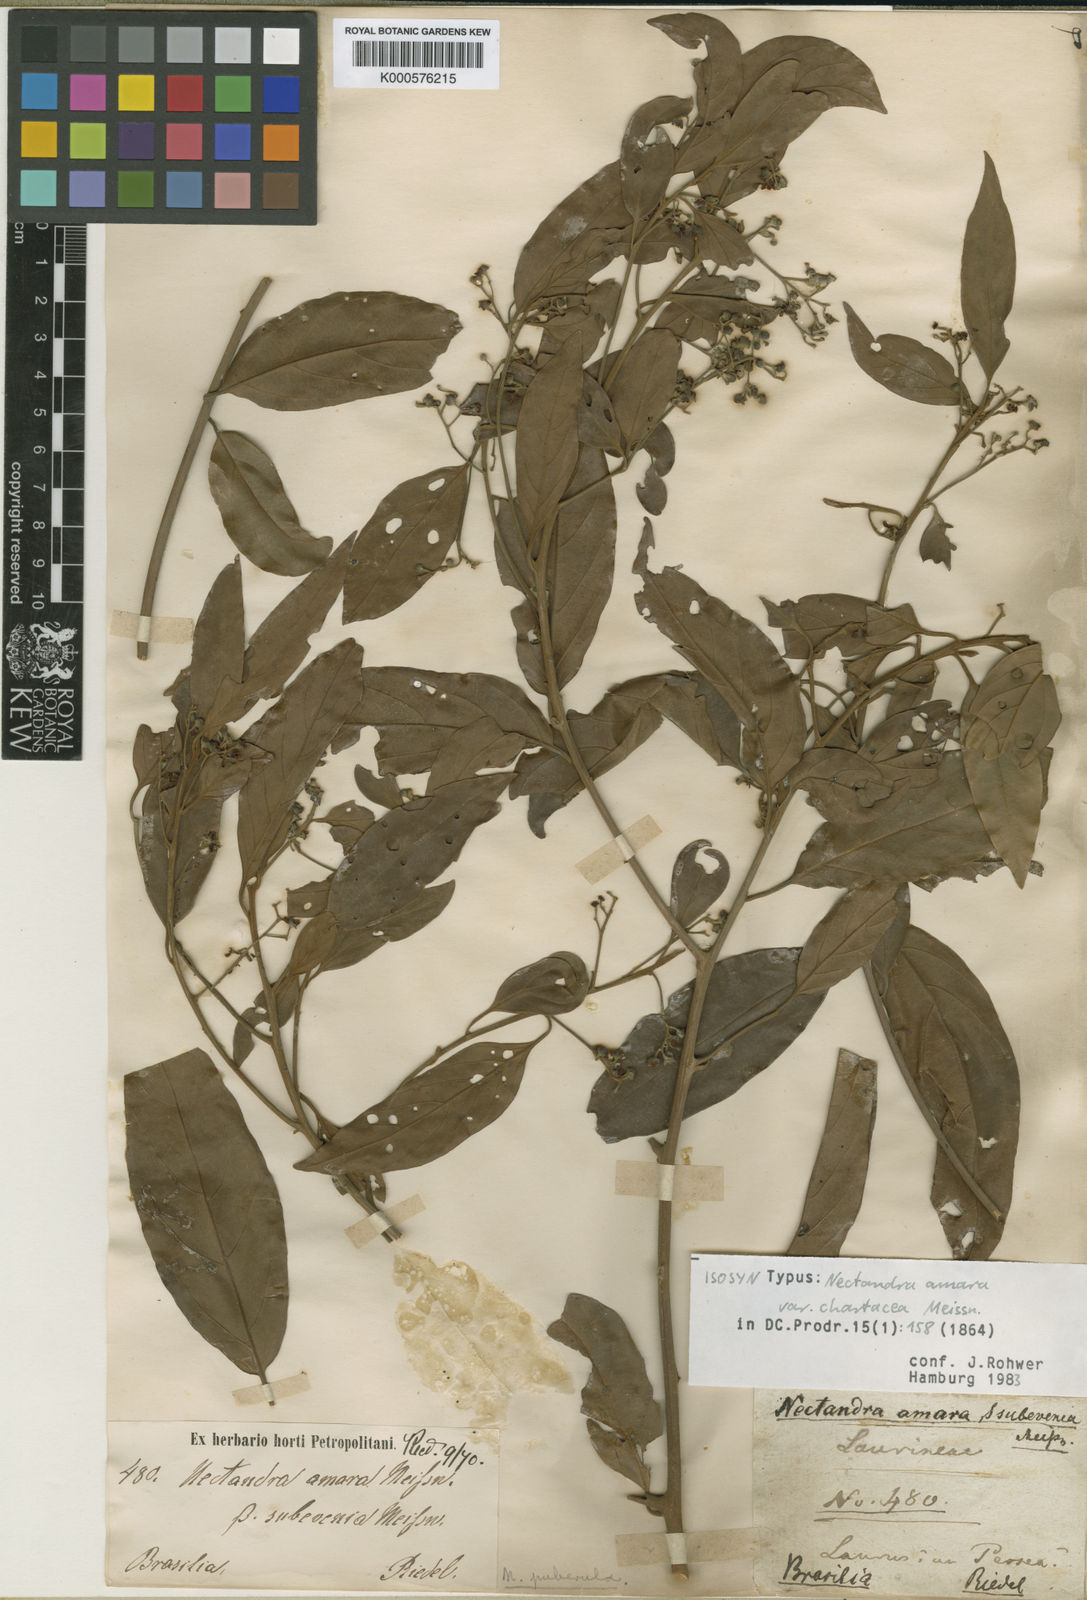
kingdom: Plantae
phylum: Tracheophyta
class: Magnoliopsida
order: Laurales
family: Lauraceae
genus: Nectandra
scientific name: Nectandra puberula
